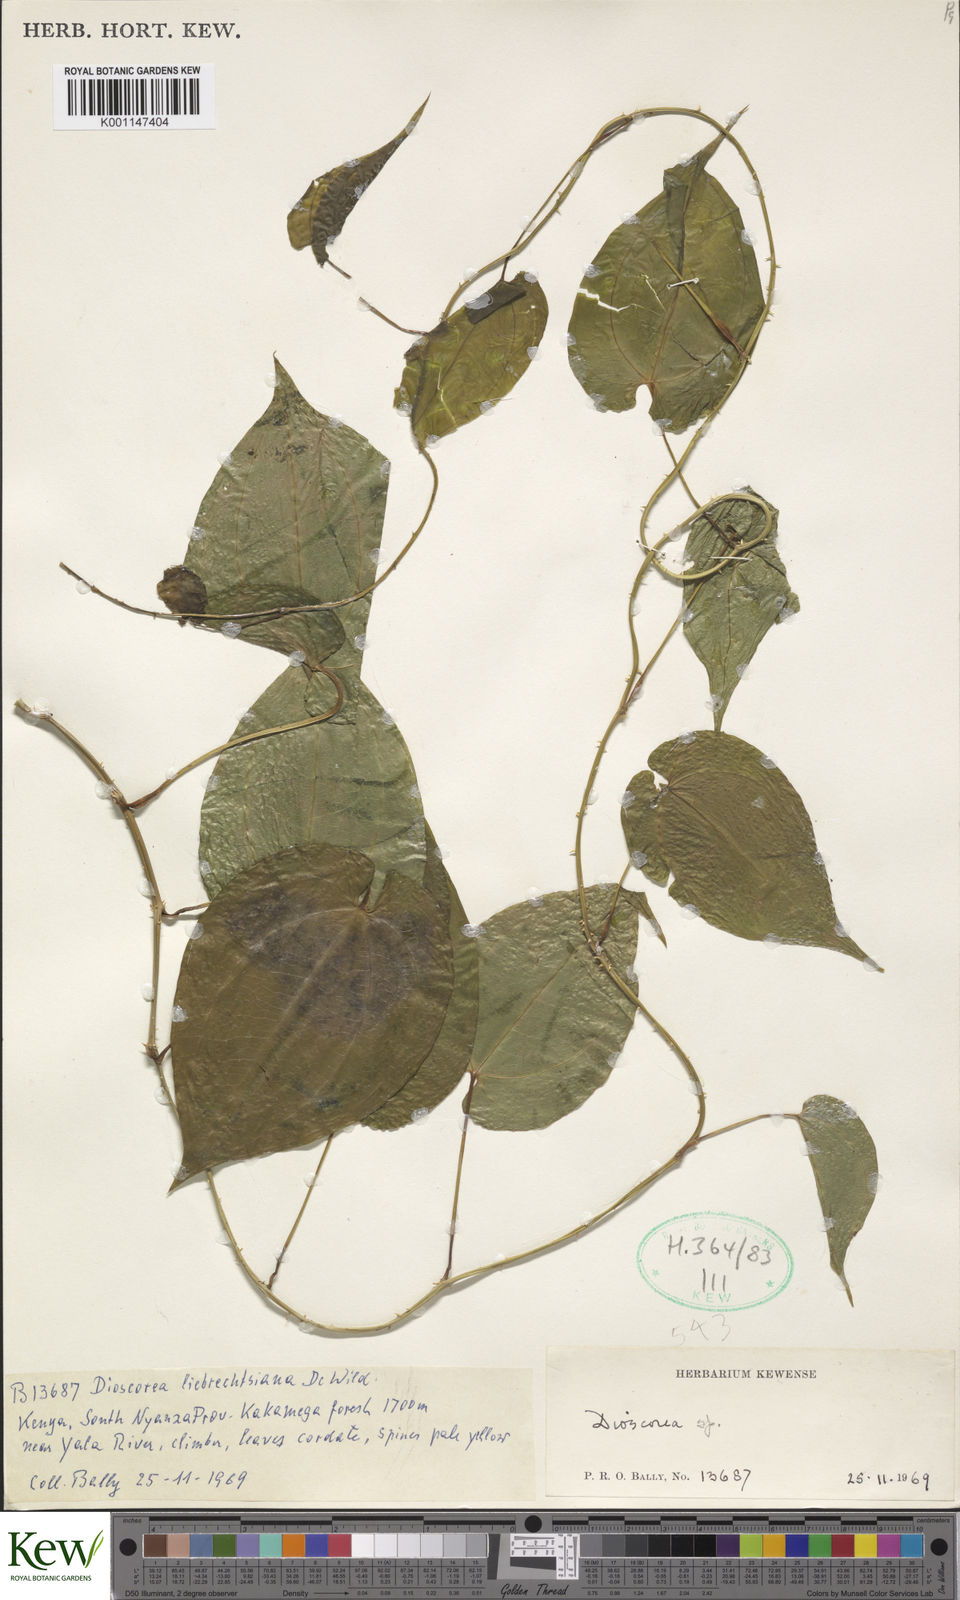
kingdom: Plantae
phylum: Tracheophyta
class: Liliopsida
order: Dioscoreales
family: Dioscoreaceae
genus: Dioscorea
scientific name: Dioscorea praehensilis
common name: Bush yam
